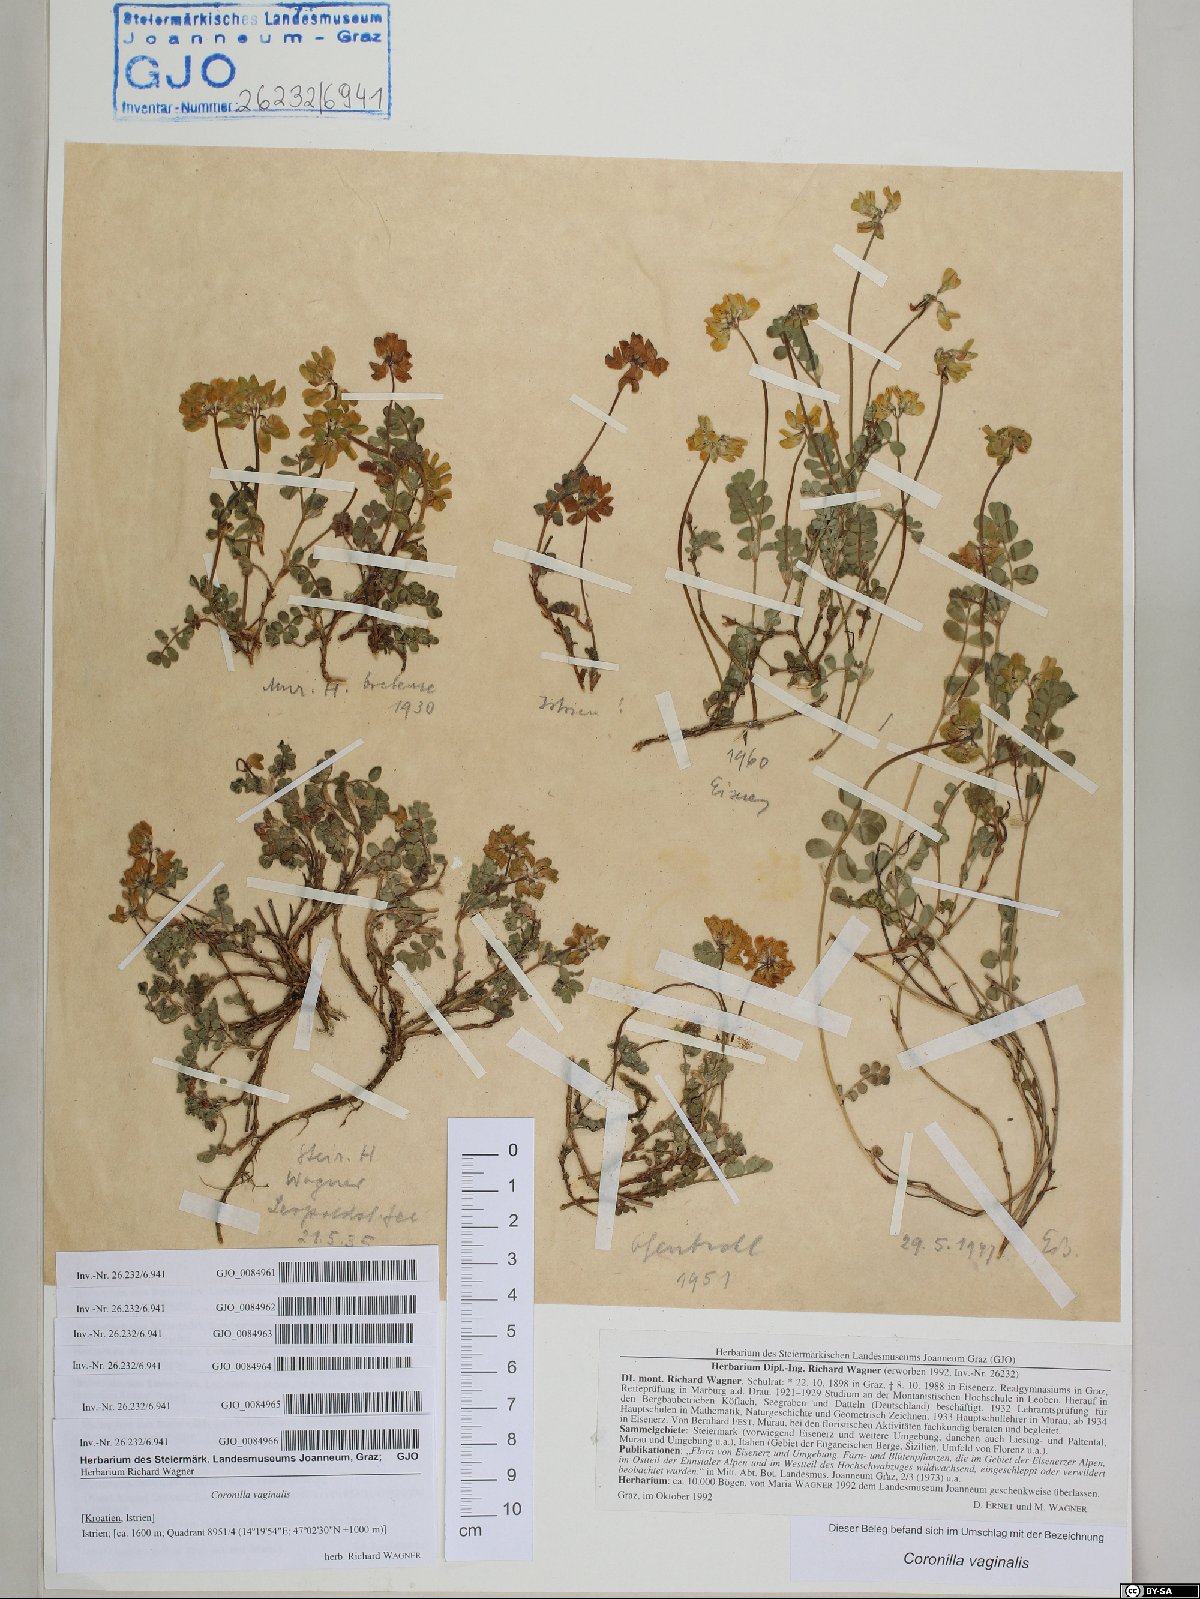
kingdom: Plantae
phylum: Tracheophyta
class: Magnoliopsida
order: Fabales
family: Fabaceae
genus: Coronilla
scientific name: Coronilla vaginalis
